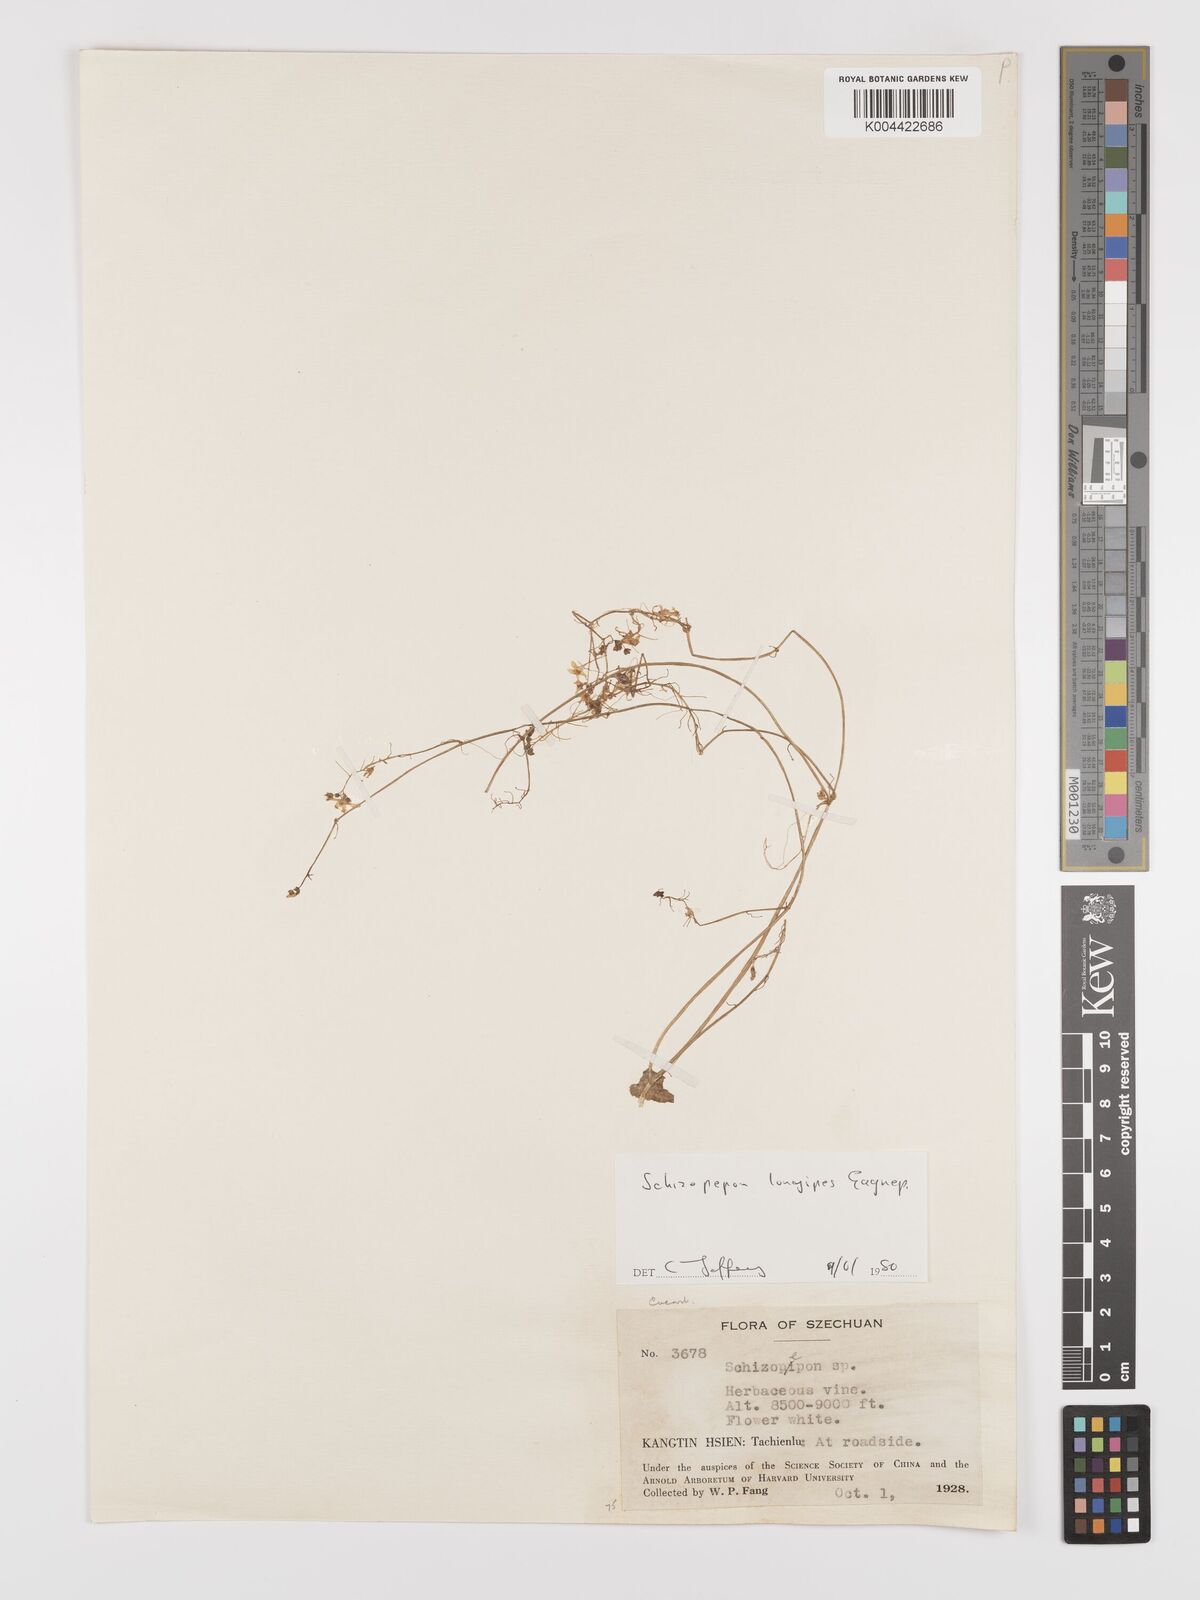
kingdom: Plantae
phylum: Tracheophyta
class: Magnoliopsida
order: Cucurbitales
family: Cucurbitaceae
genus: Schizopepon
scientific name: Schizopepon longipes
